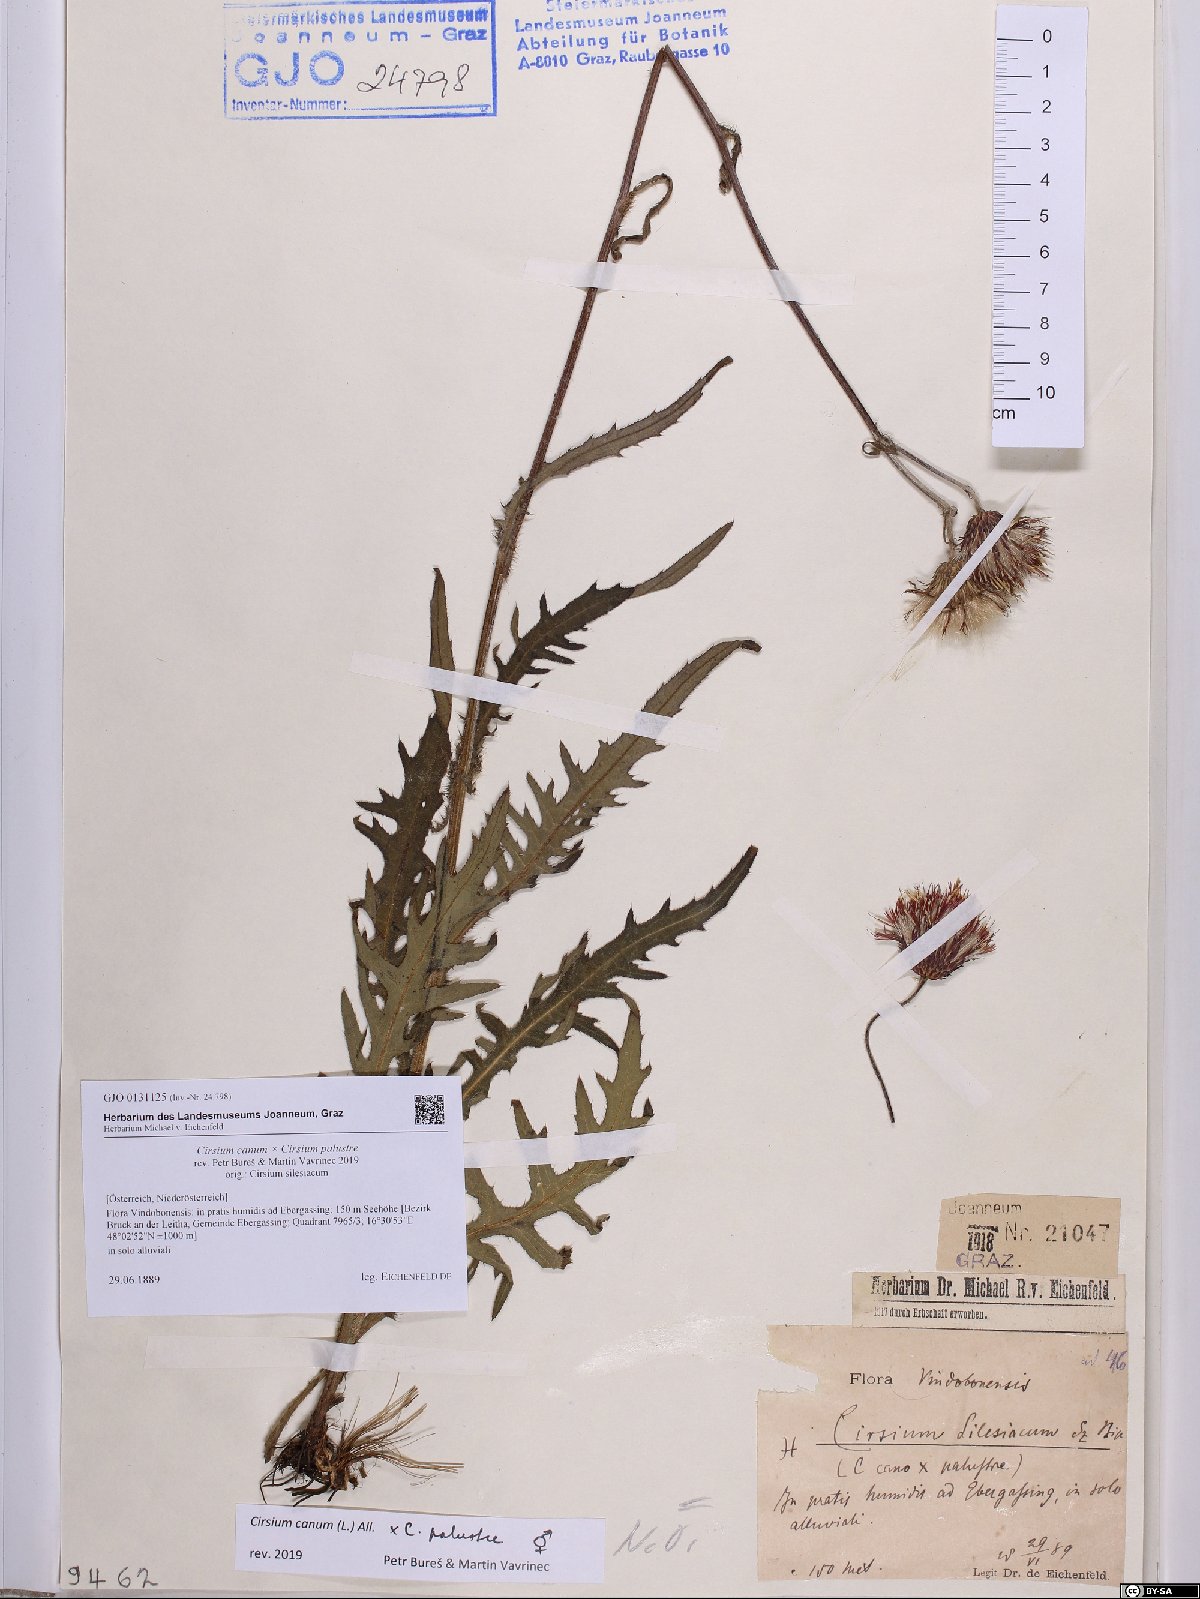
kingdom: Plantae
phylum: Tracheophyta
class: Magnoliopsida
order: Asterales
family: Asteraceae
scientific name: Asteraceae
